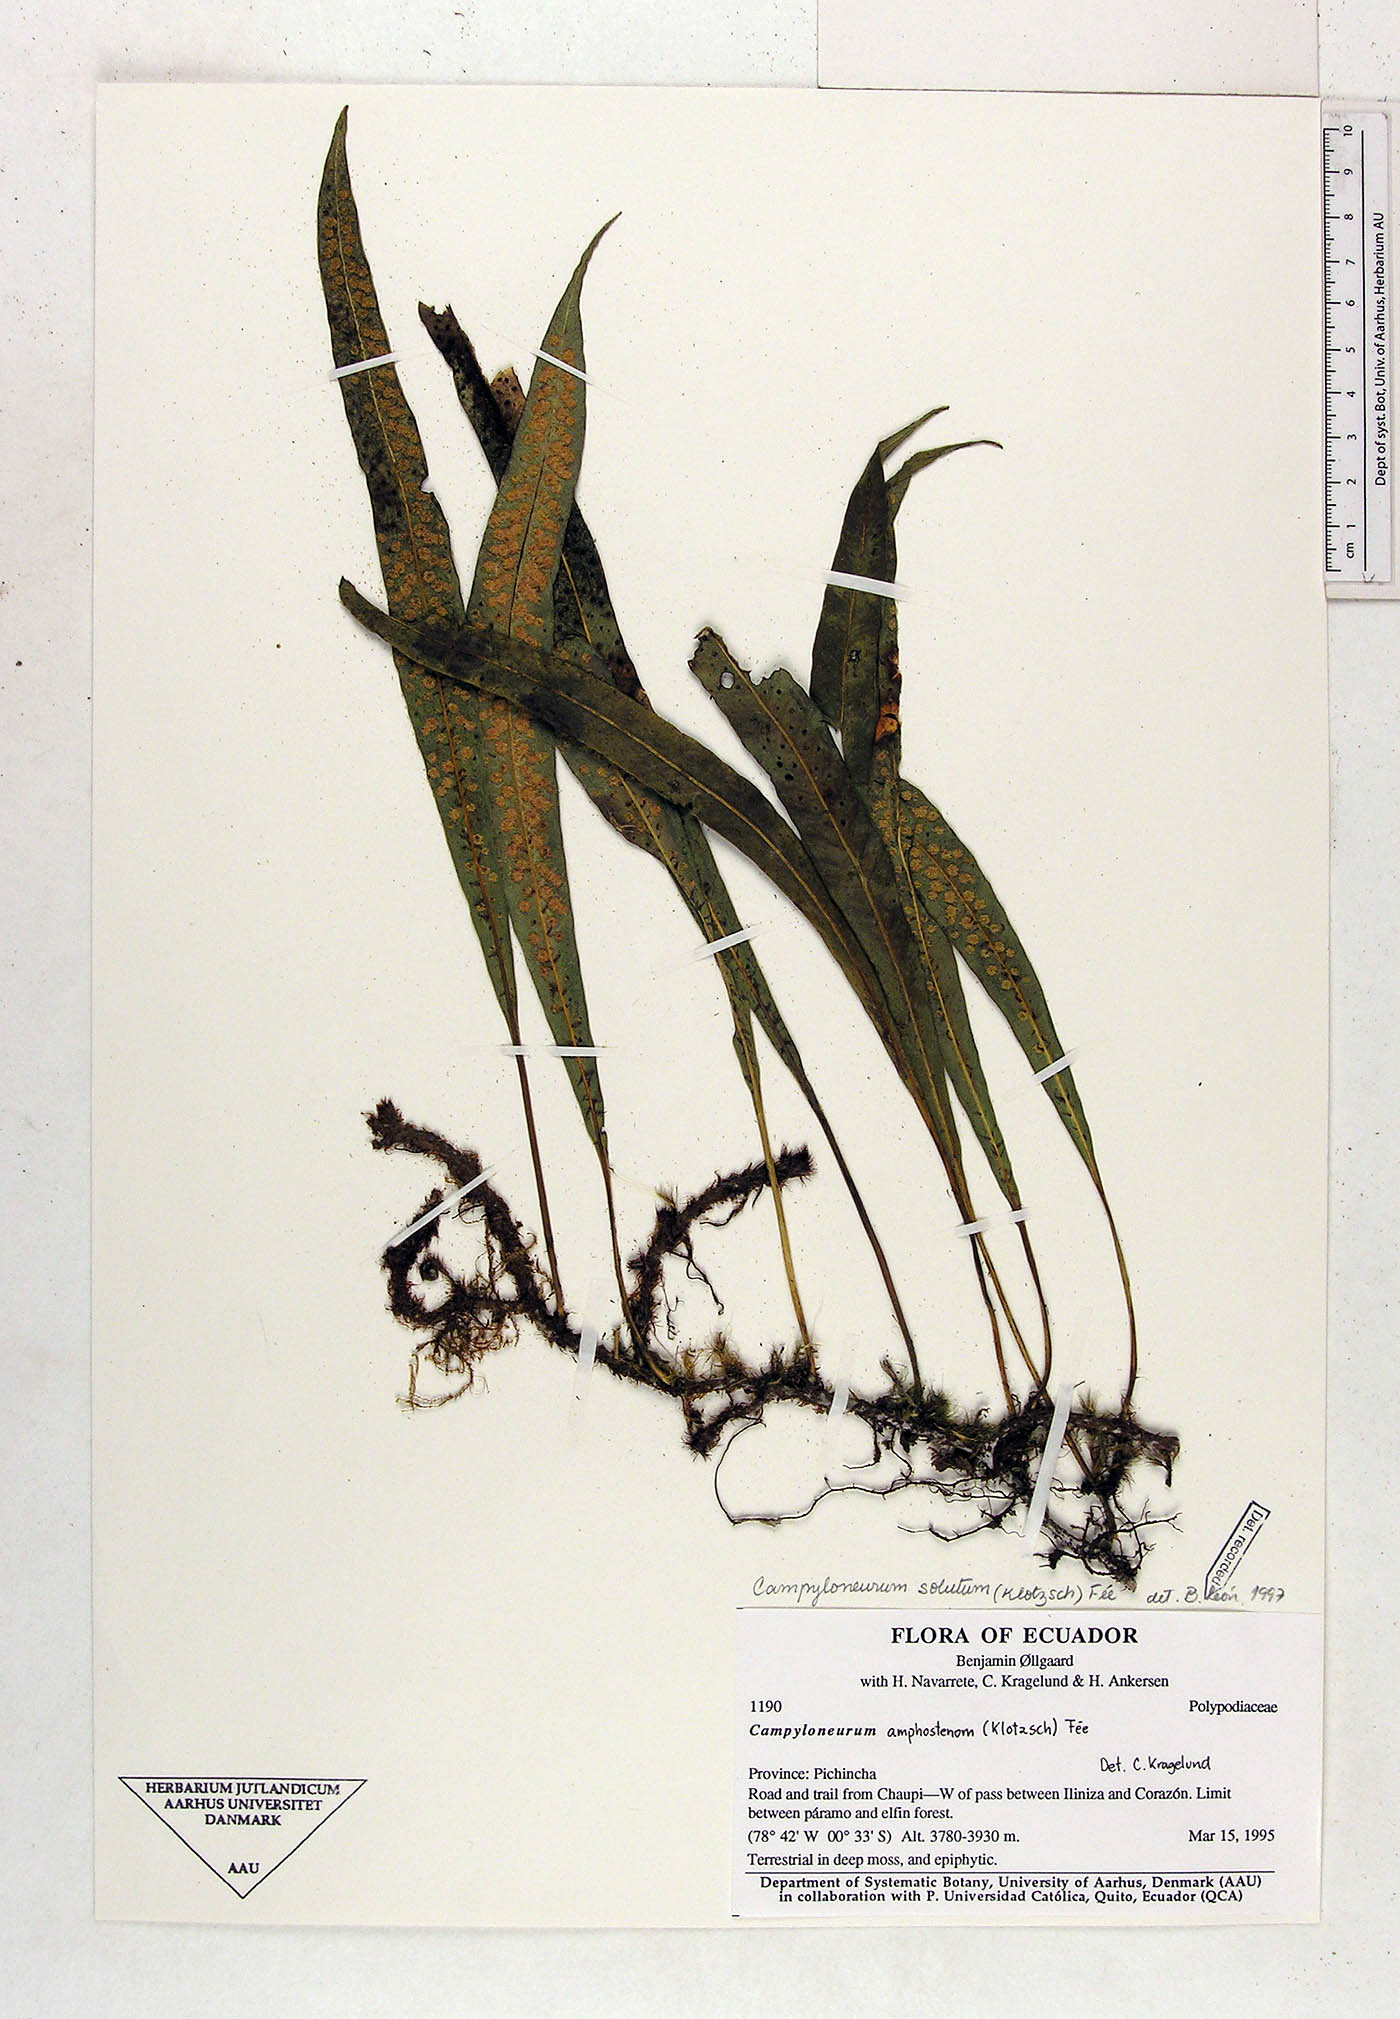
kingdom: Plantae
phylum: Tracheophyta
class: Polypodiopsida
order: Polypodiales
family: Polypodiaceae
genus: Campyloneurum
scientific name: Campyloneurum solutum
